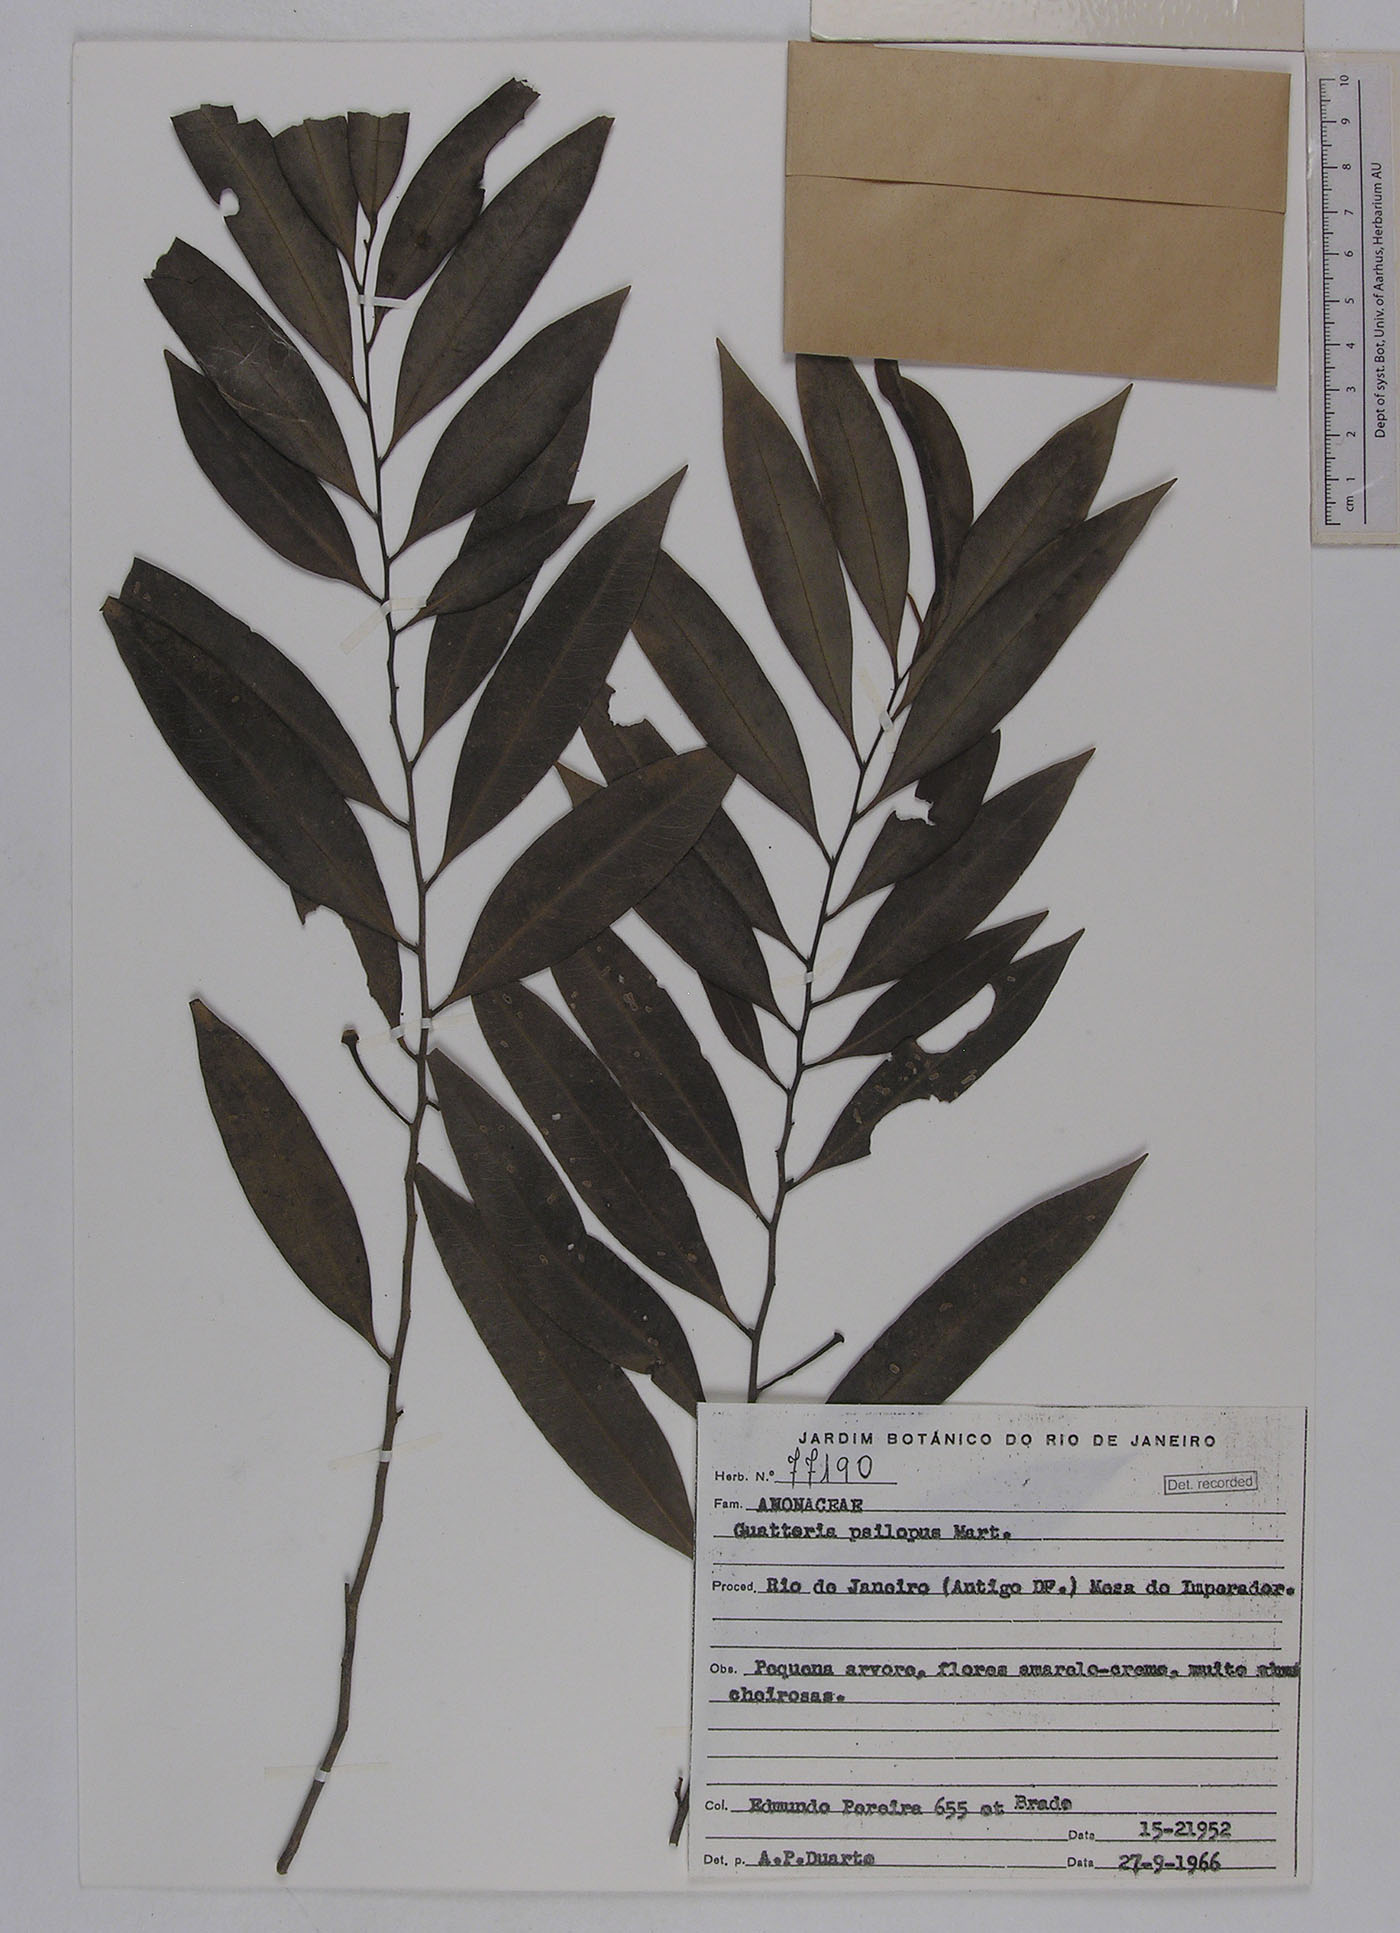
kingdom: Plantae
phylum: Tracheophyta
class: Magnoliopsida
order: Magnoliales
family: Annonaceae
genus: Guatteria
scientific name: Guatteria australis
